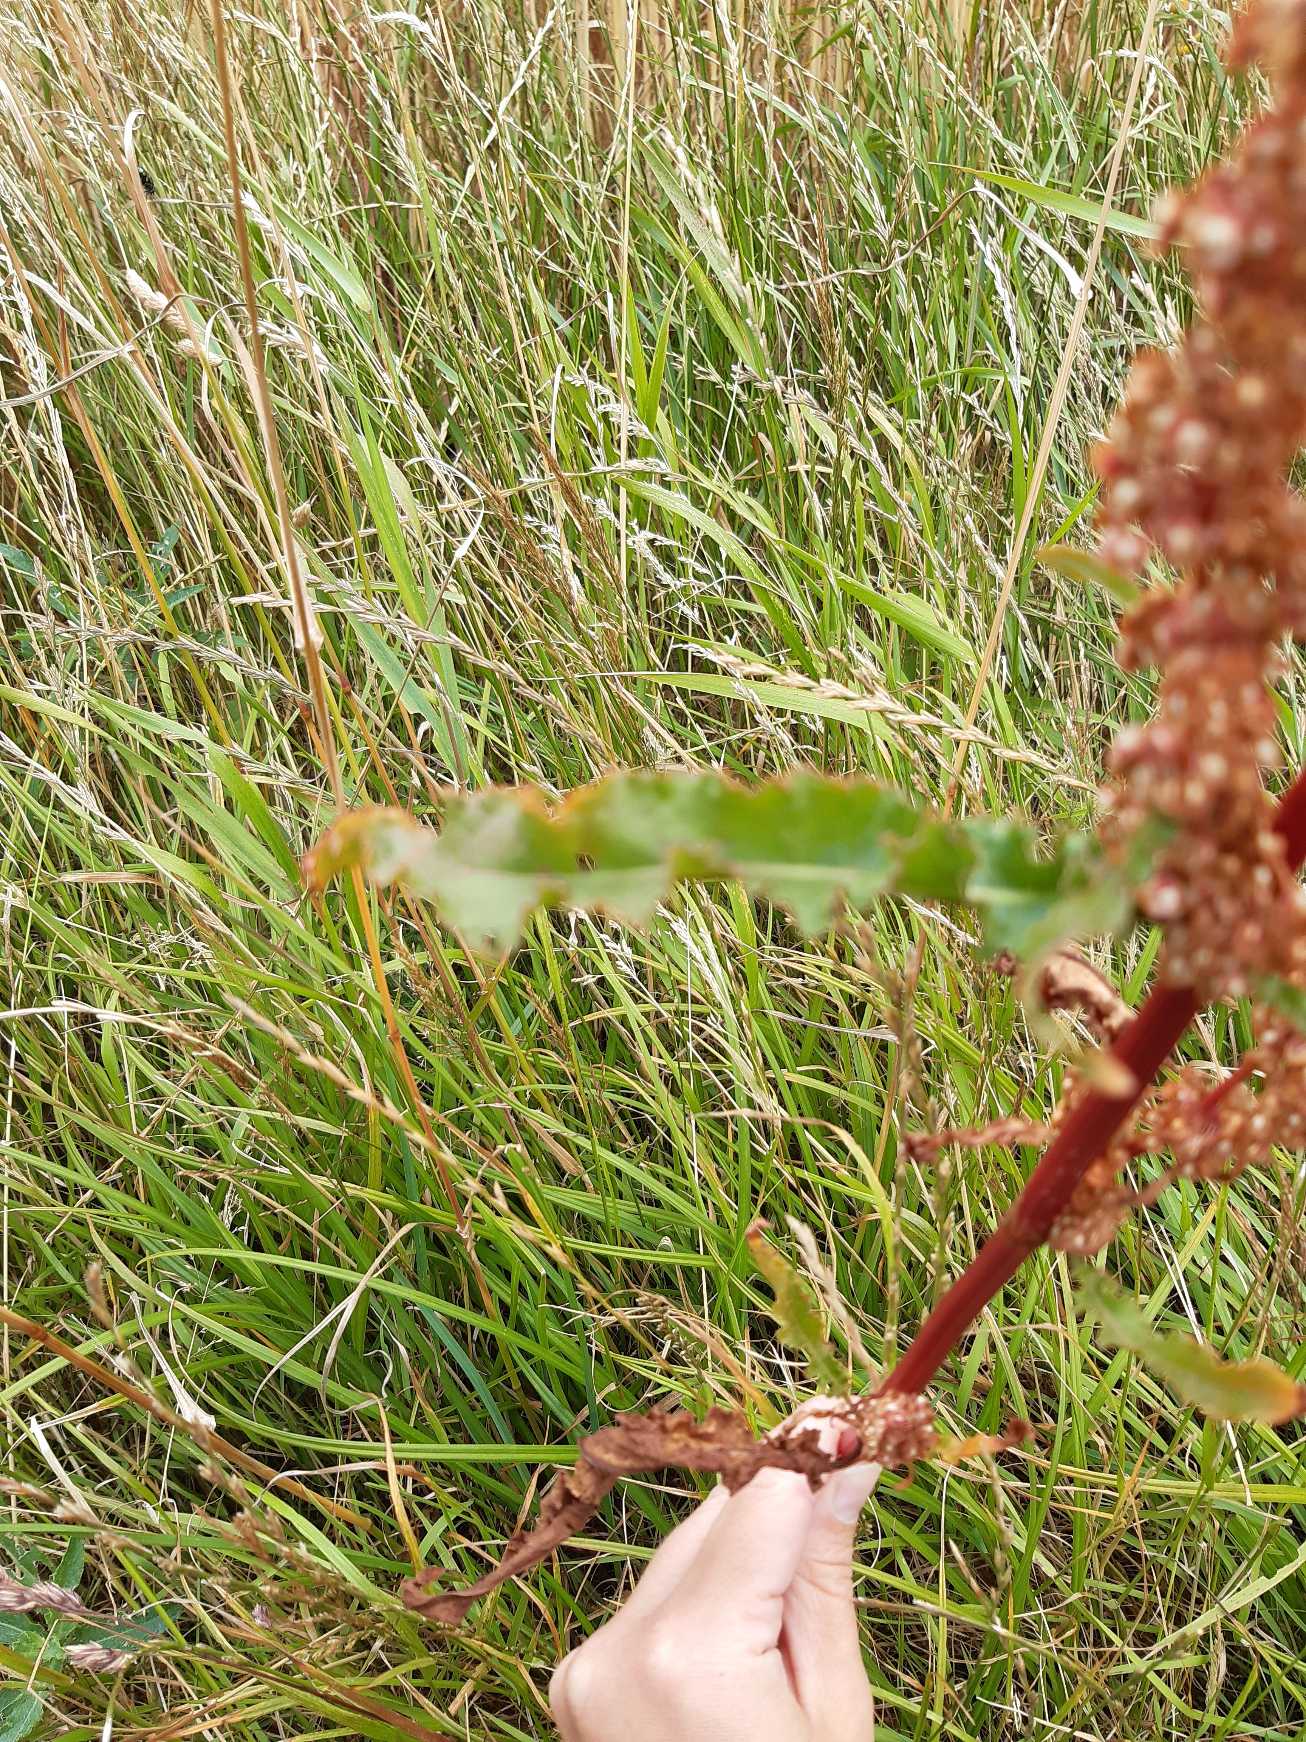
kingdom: Plantae
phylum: Tracheophyta
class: Magnoliopsida
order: Caryophyllales
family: Polygonaceae
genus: Rumex
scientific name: Rumex crispus
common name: Kruset skræppe
